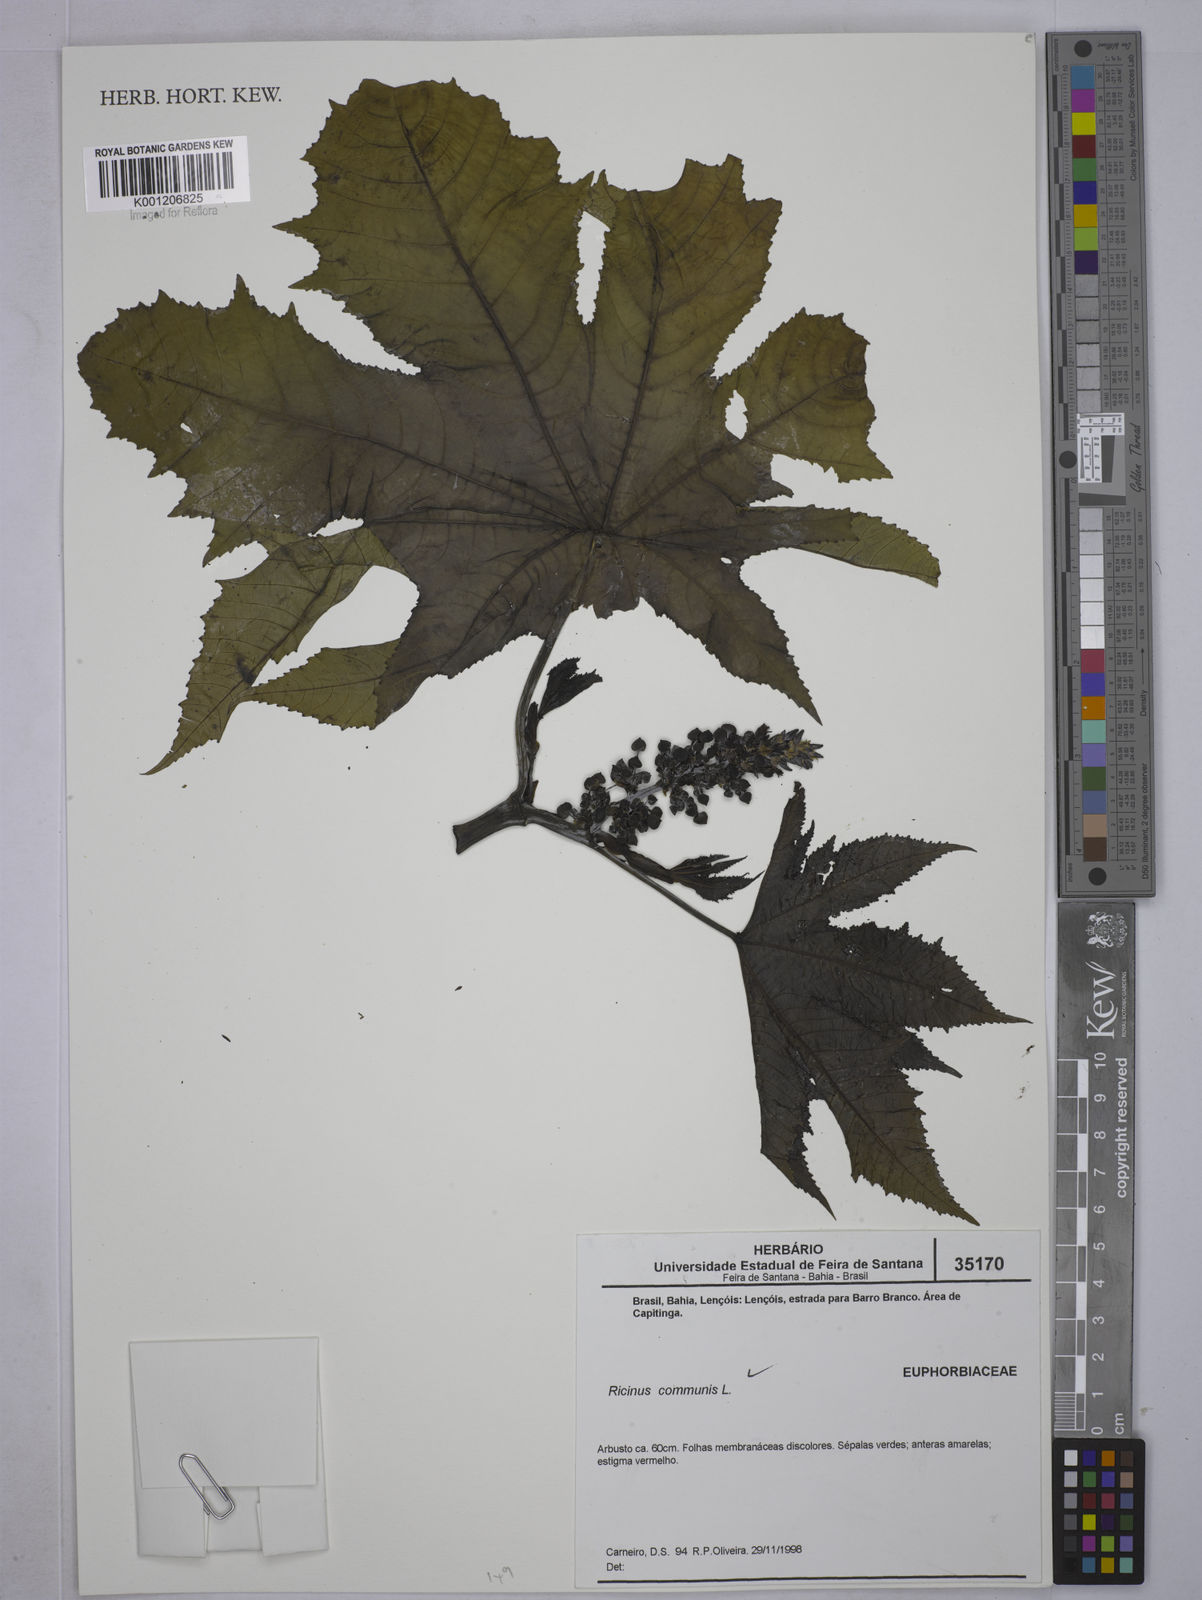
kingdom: Plantae
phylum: Tracheophyta
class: Magnoliopsida
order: Malpighiales
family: Euphorbiaceae
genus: Ricinus
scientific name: Ricinus communis
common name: Castor-oil-plant
